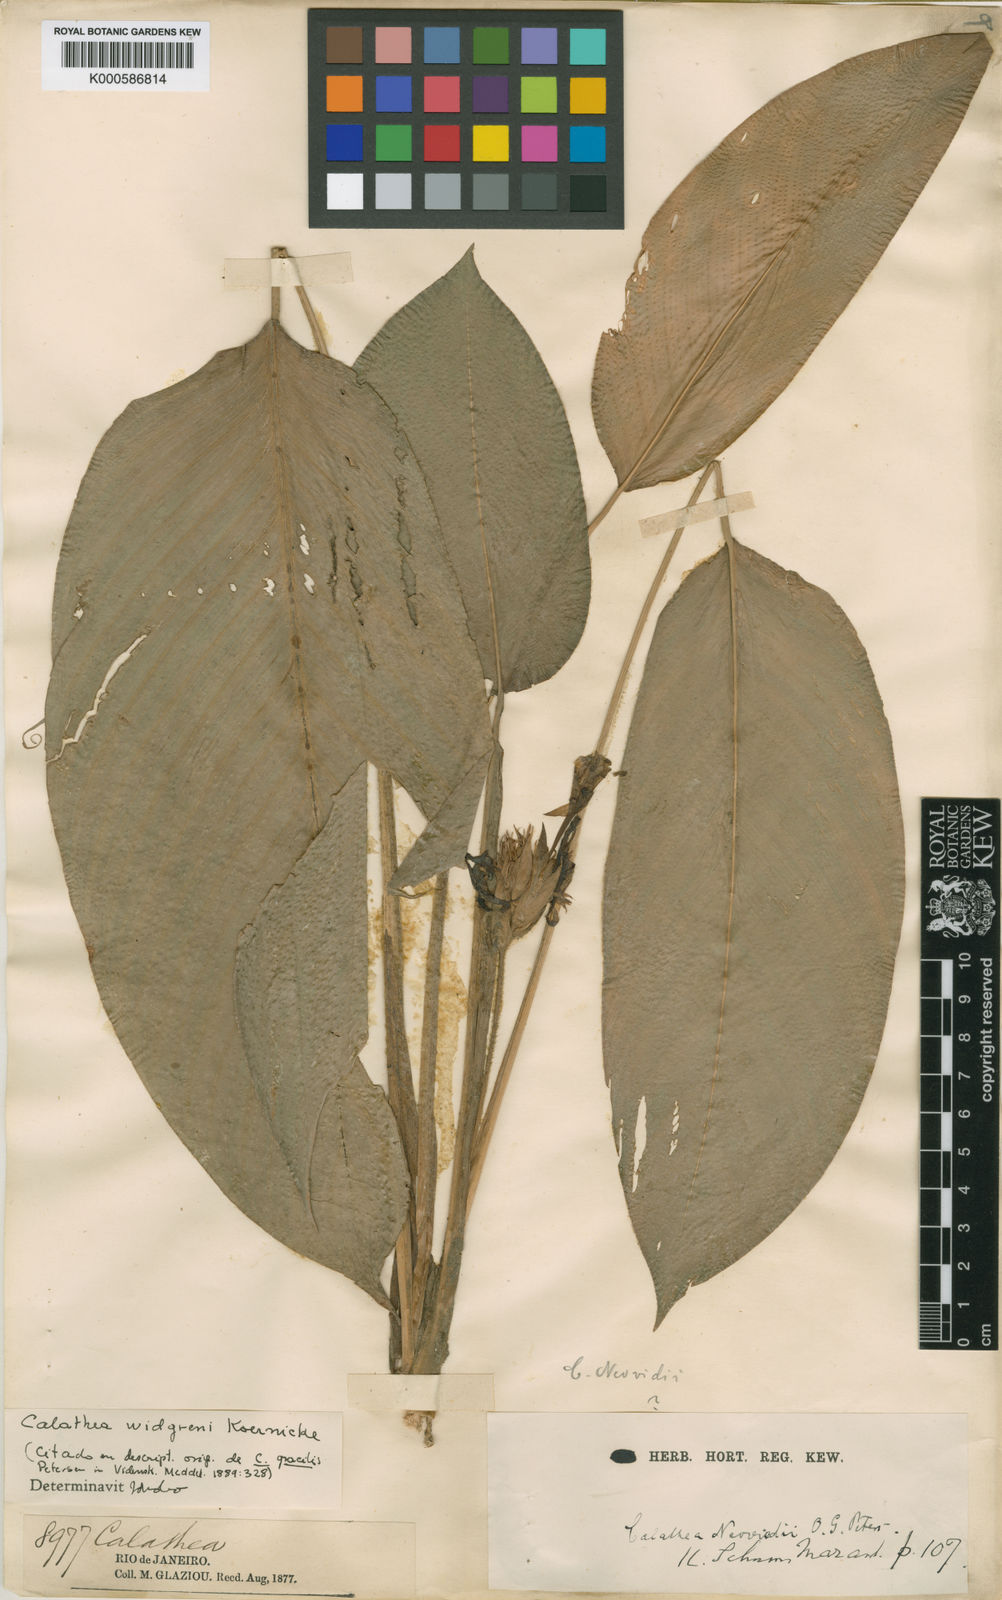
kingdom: Plantae
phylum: Tracheophyta
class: Liliopsida
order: Zingiberales
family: Marantaceae
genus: Calathea
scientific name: Calathea
